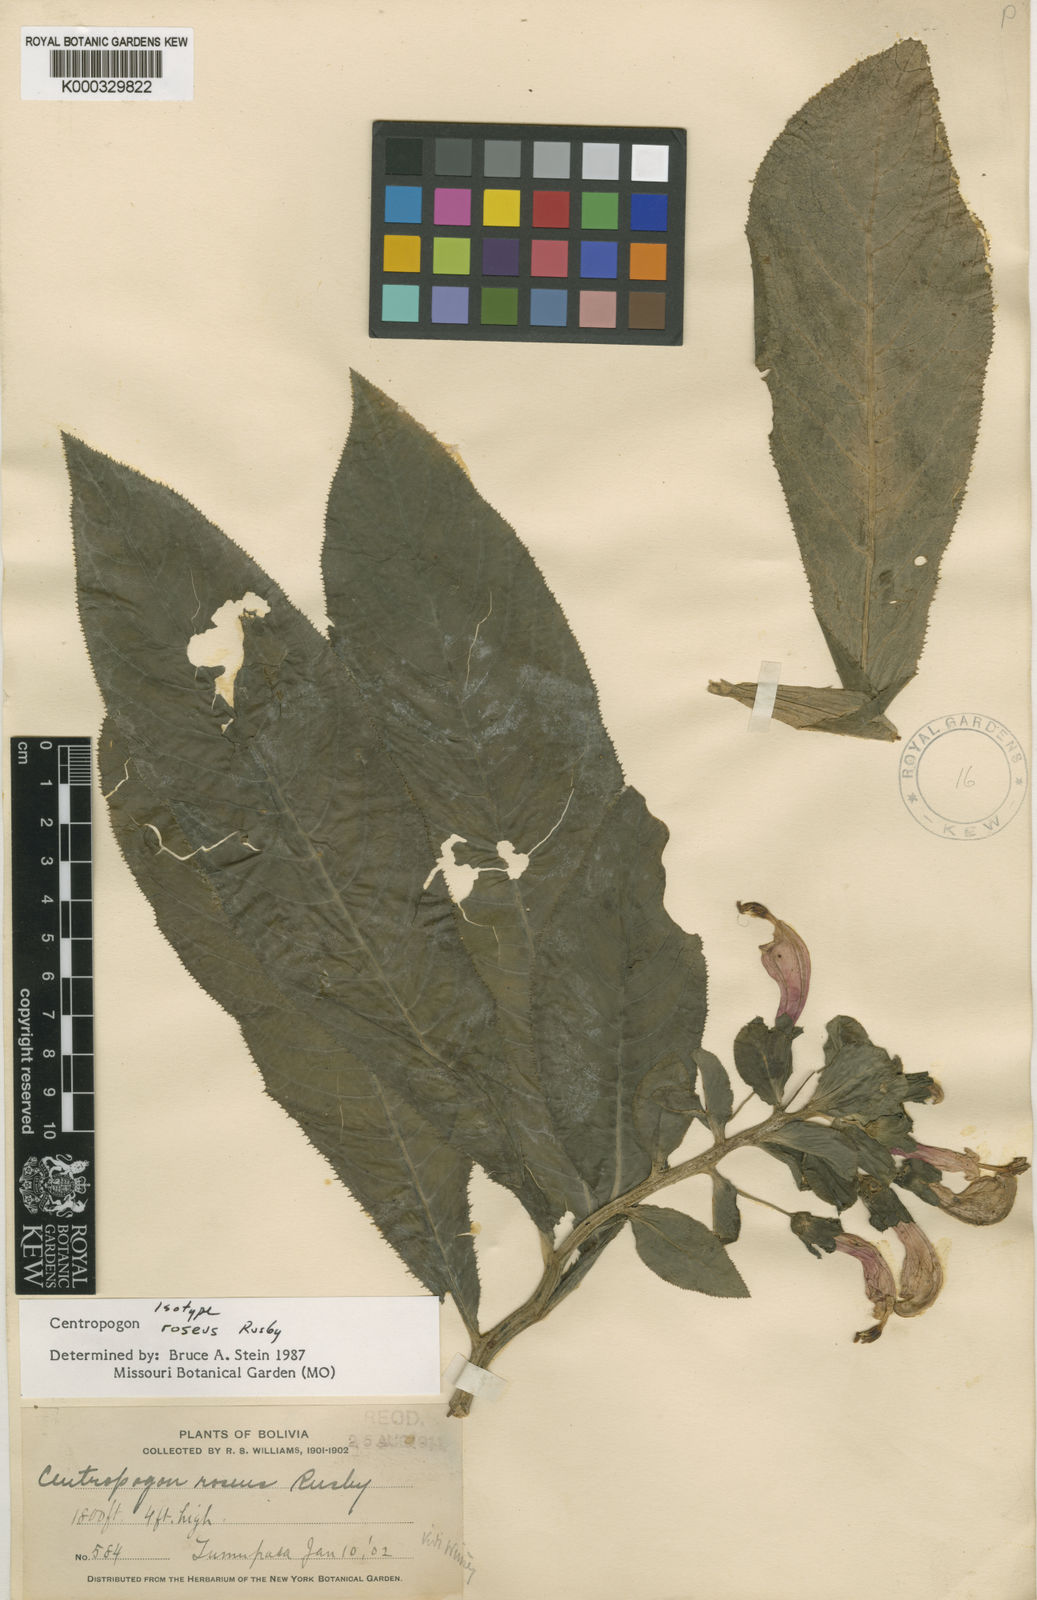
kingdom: Plantae
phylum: Tracheophyta
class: Magnoliopsida
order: Asterales
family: Campanulaceae
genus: Centropogon
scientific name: Centropogon roseus
